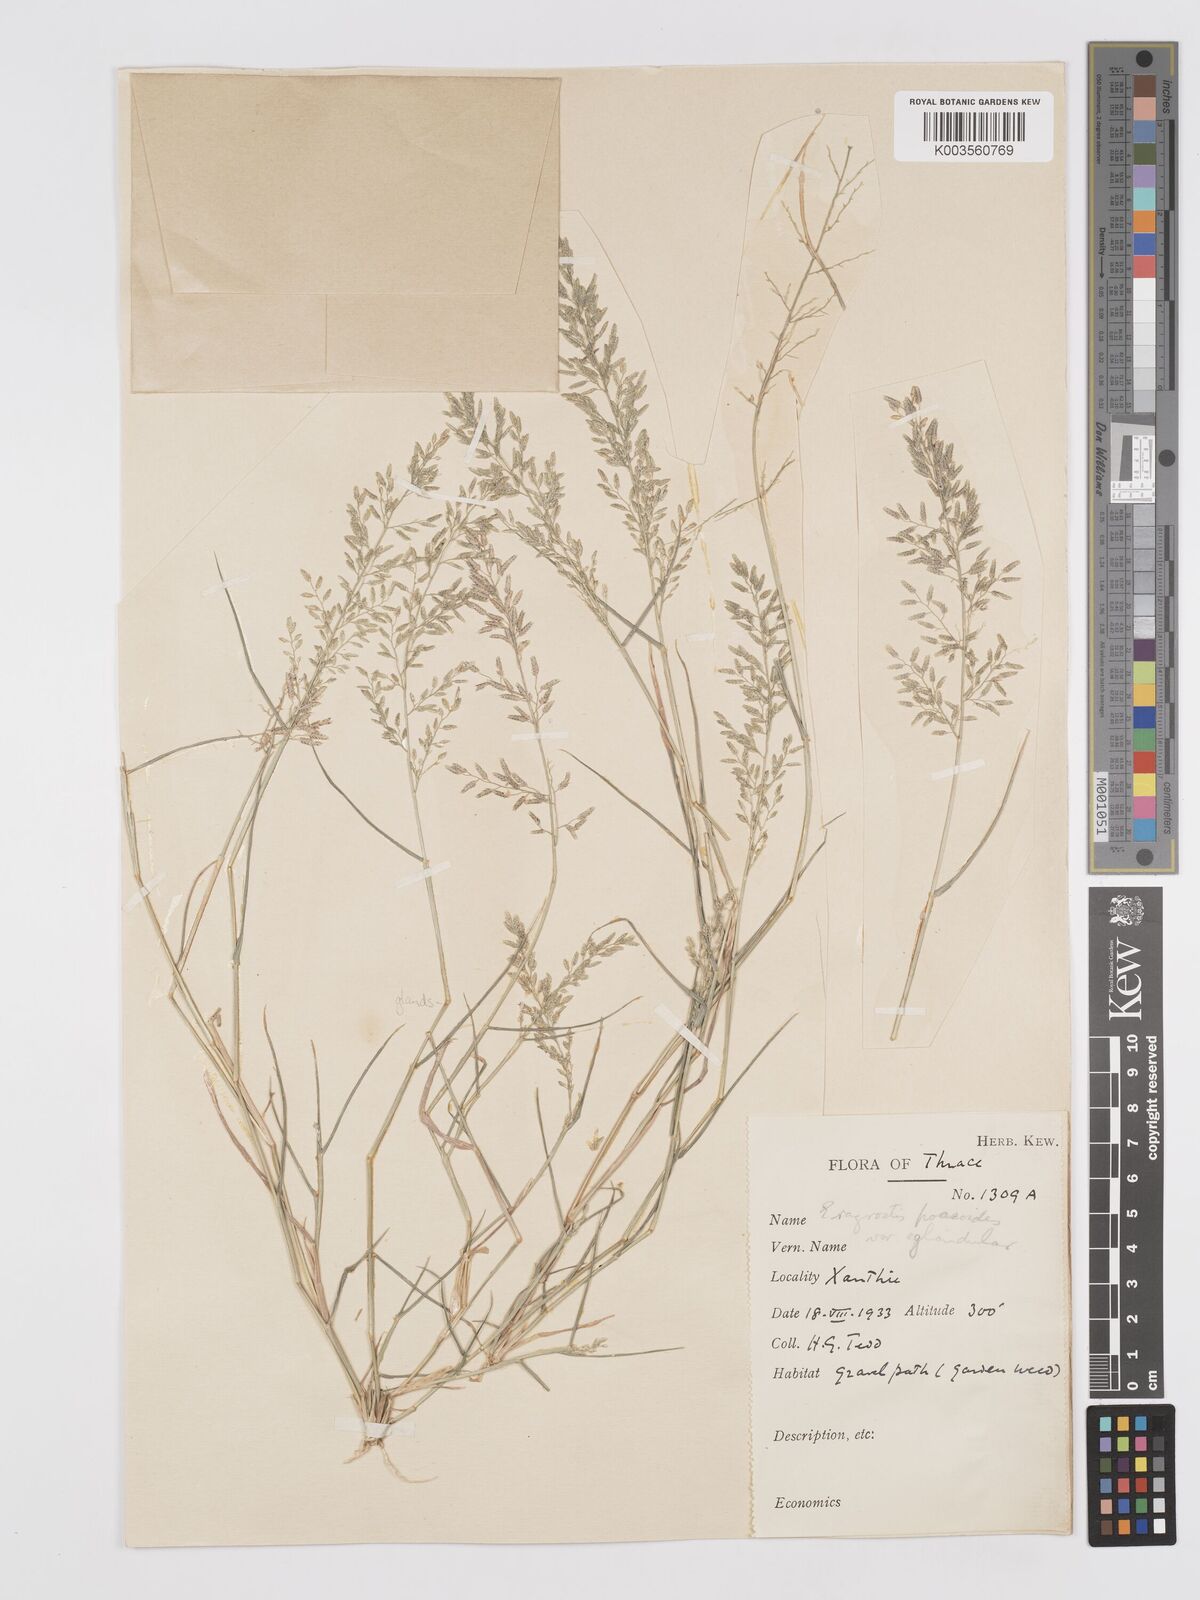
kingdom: Plantae
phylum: Tracheophyta
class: Liliopsida
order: Poales
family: Poaceae
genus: Eragrostis
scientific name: Eragrostis minor
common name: Small love-grass
